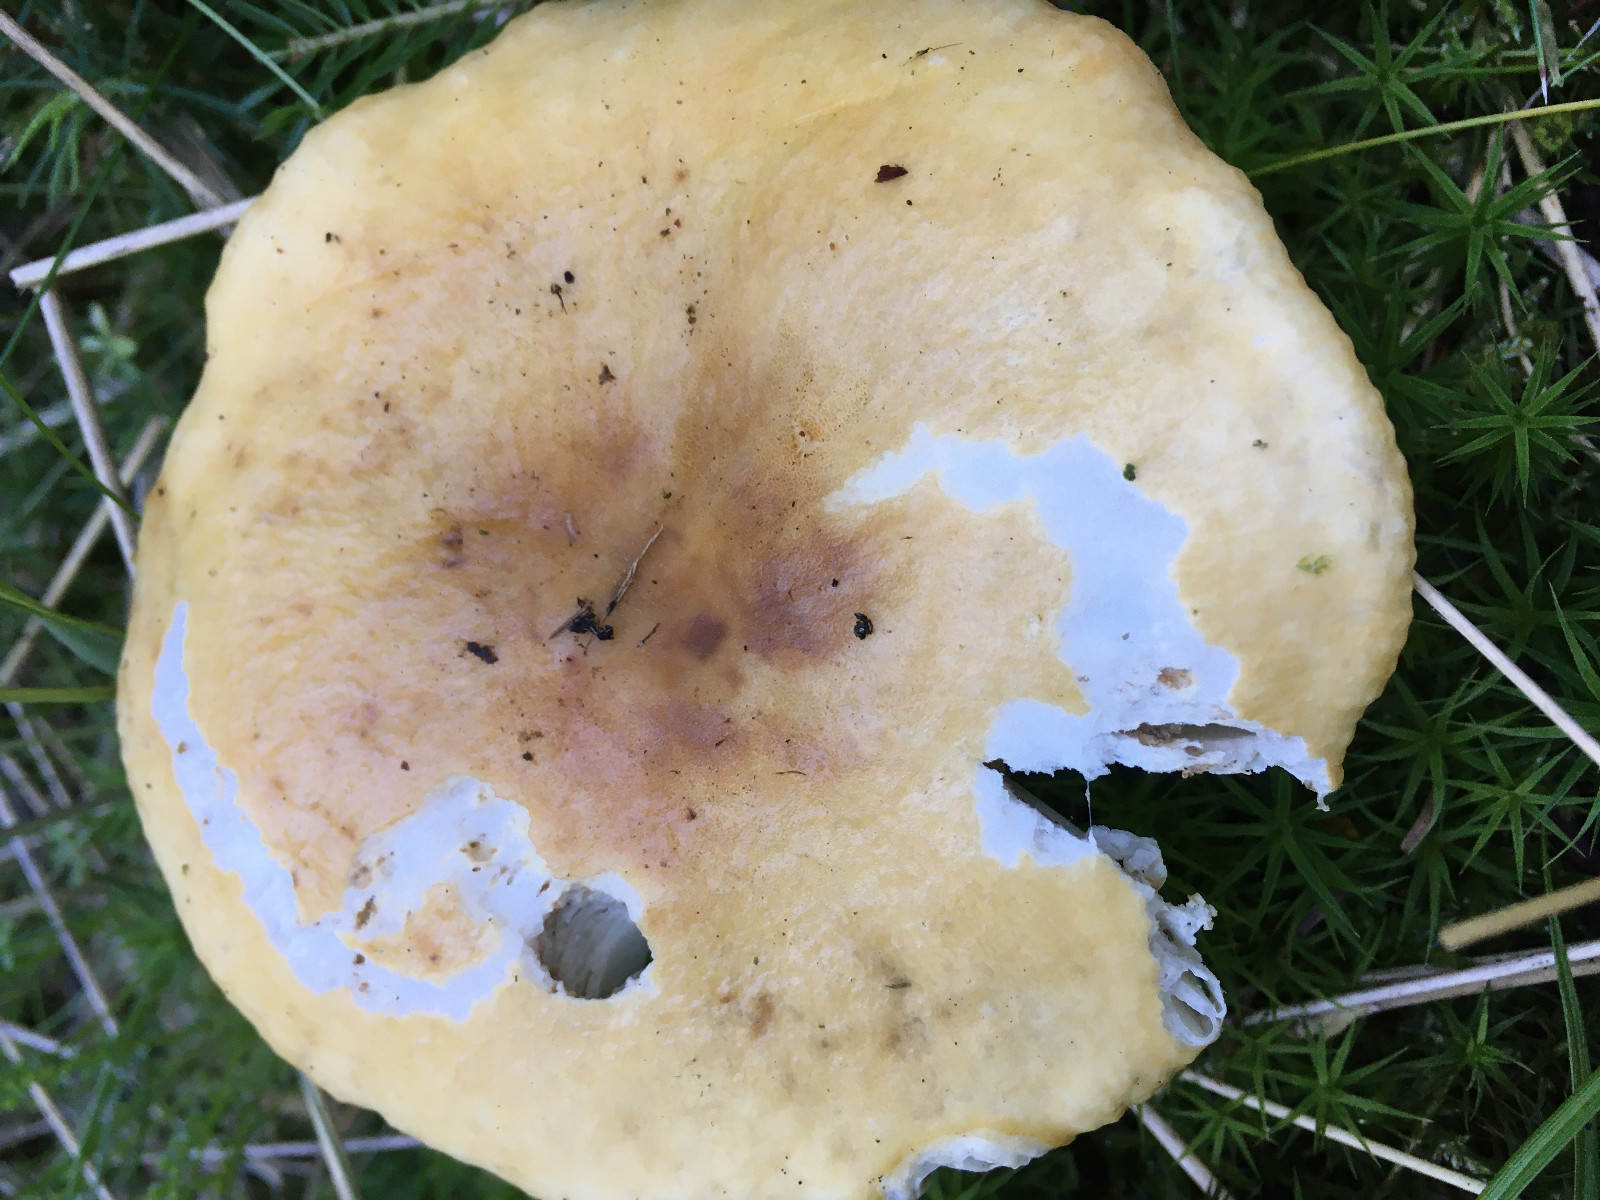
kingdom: Fungi
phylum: Basidiomycota
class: Agaricomycetes
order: Russulales
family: Russulaceae
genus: Russula
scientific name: Russula ochroleuca
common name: okkergul skørhat
